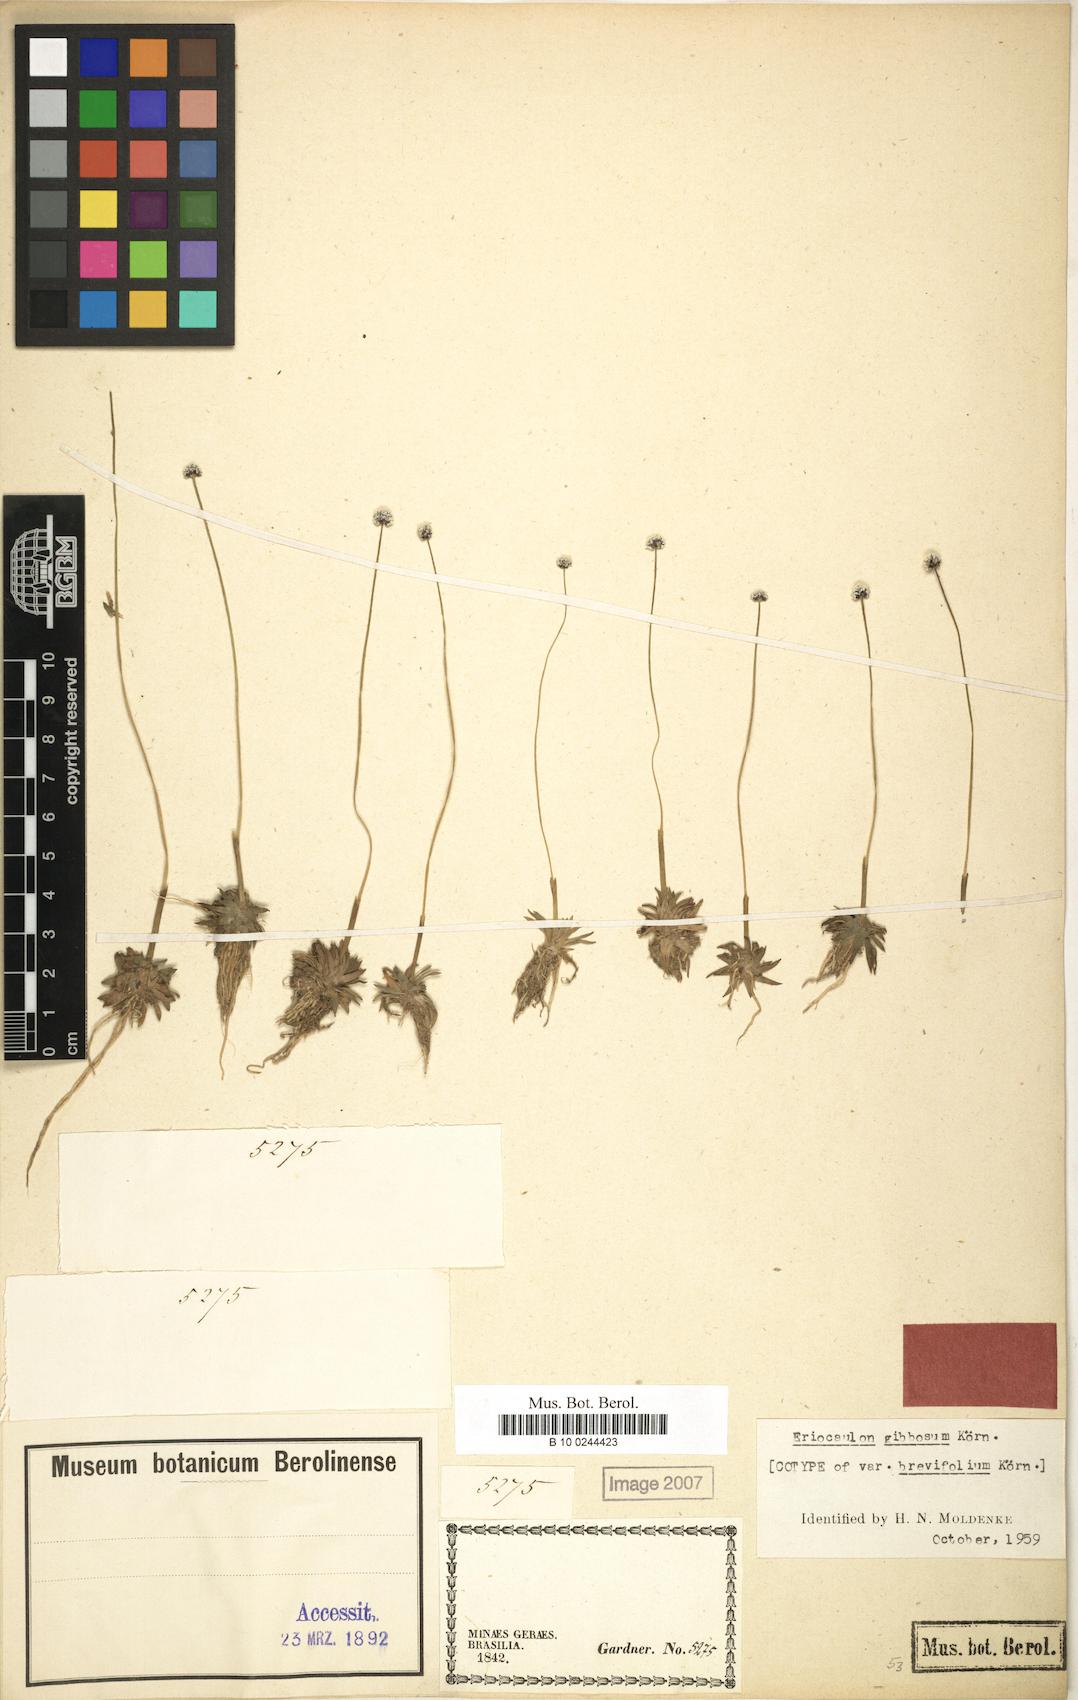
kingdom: Plantae
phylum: Tracheophyta
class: Liliopsida
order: Poales
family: Eriocaulaceae
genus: Eriocaulon
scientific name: Eriocaulon gibbosum
